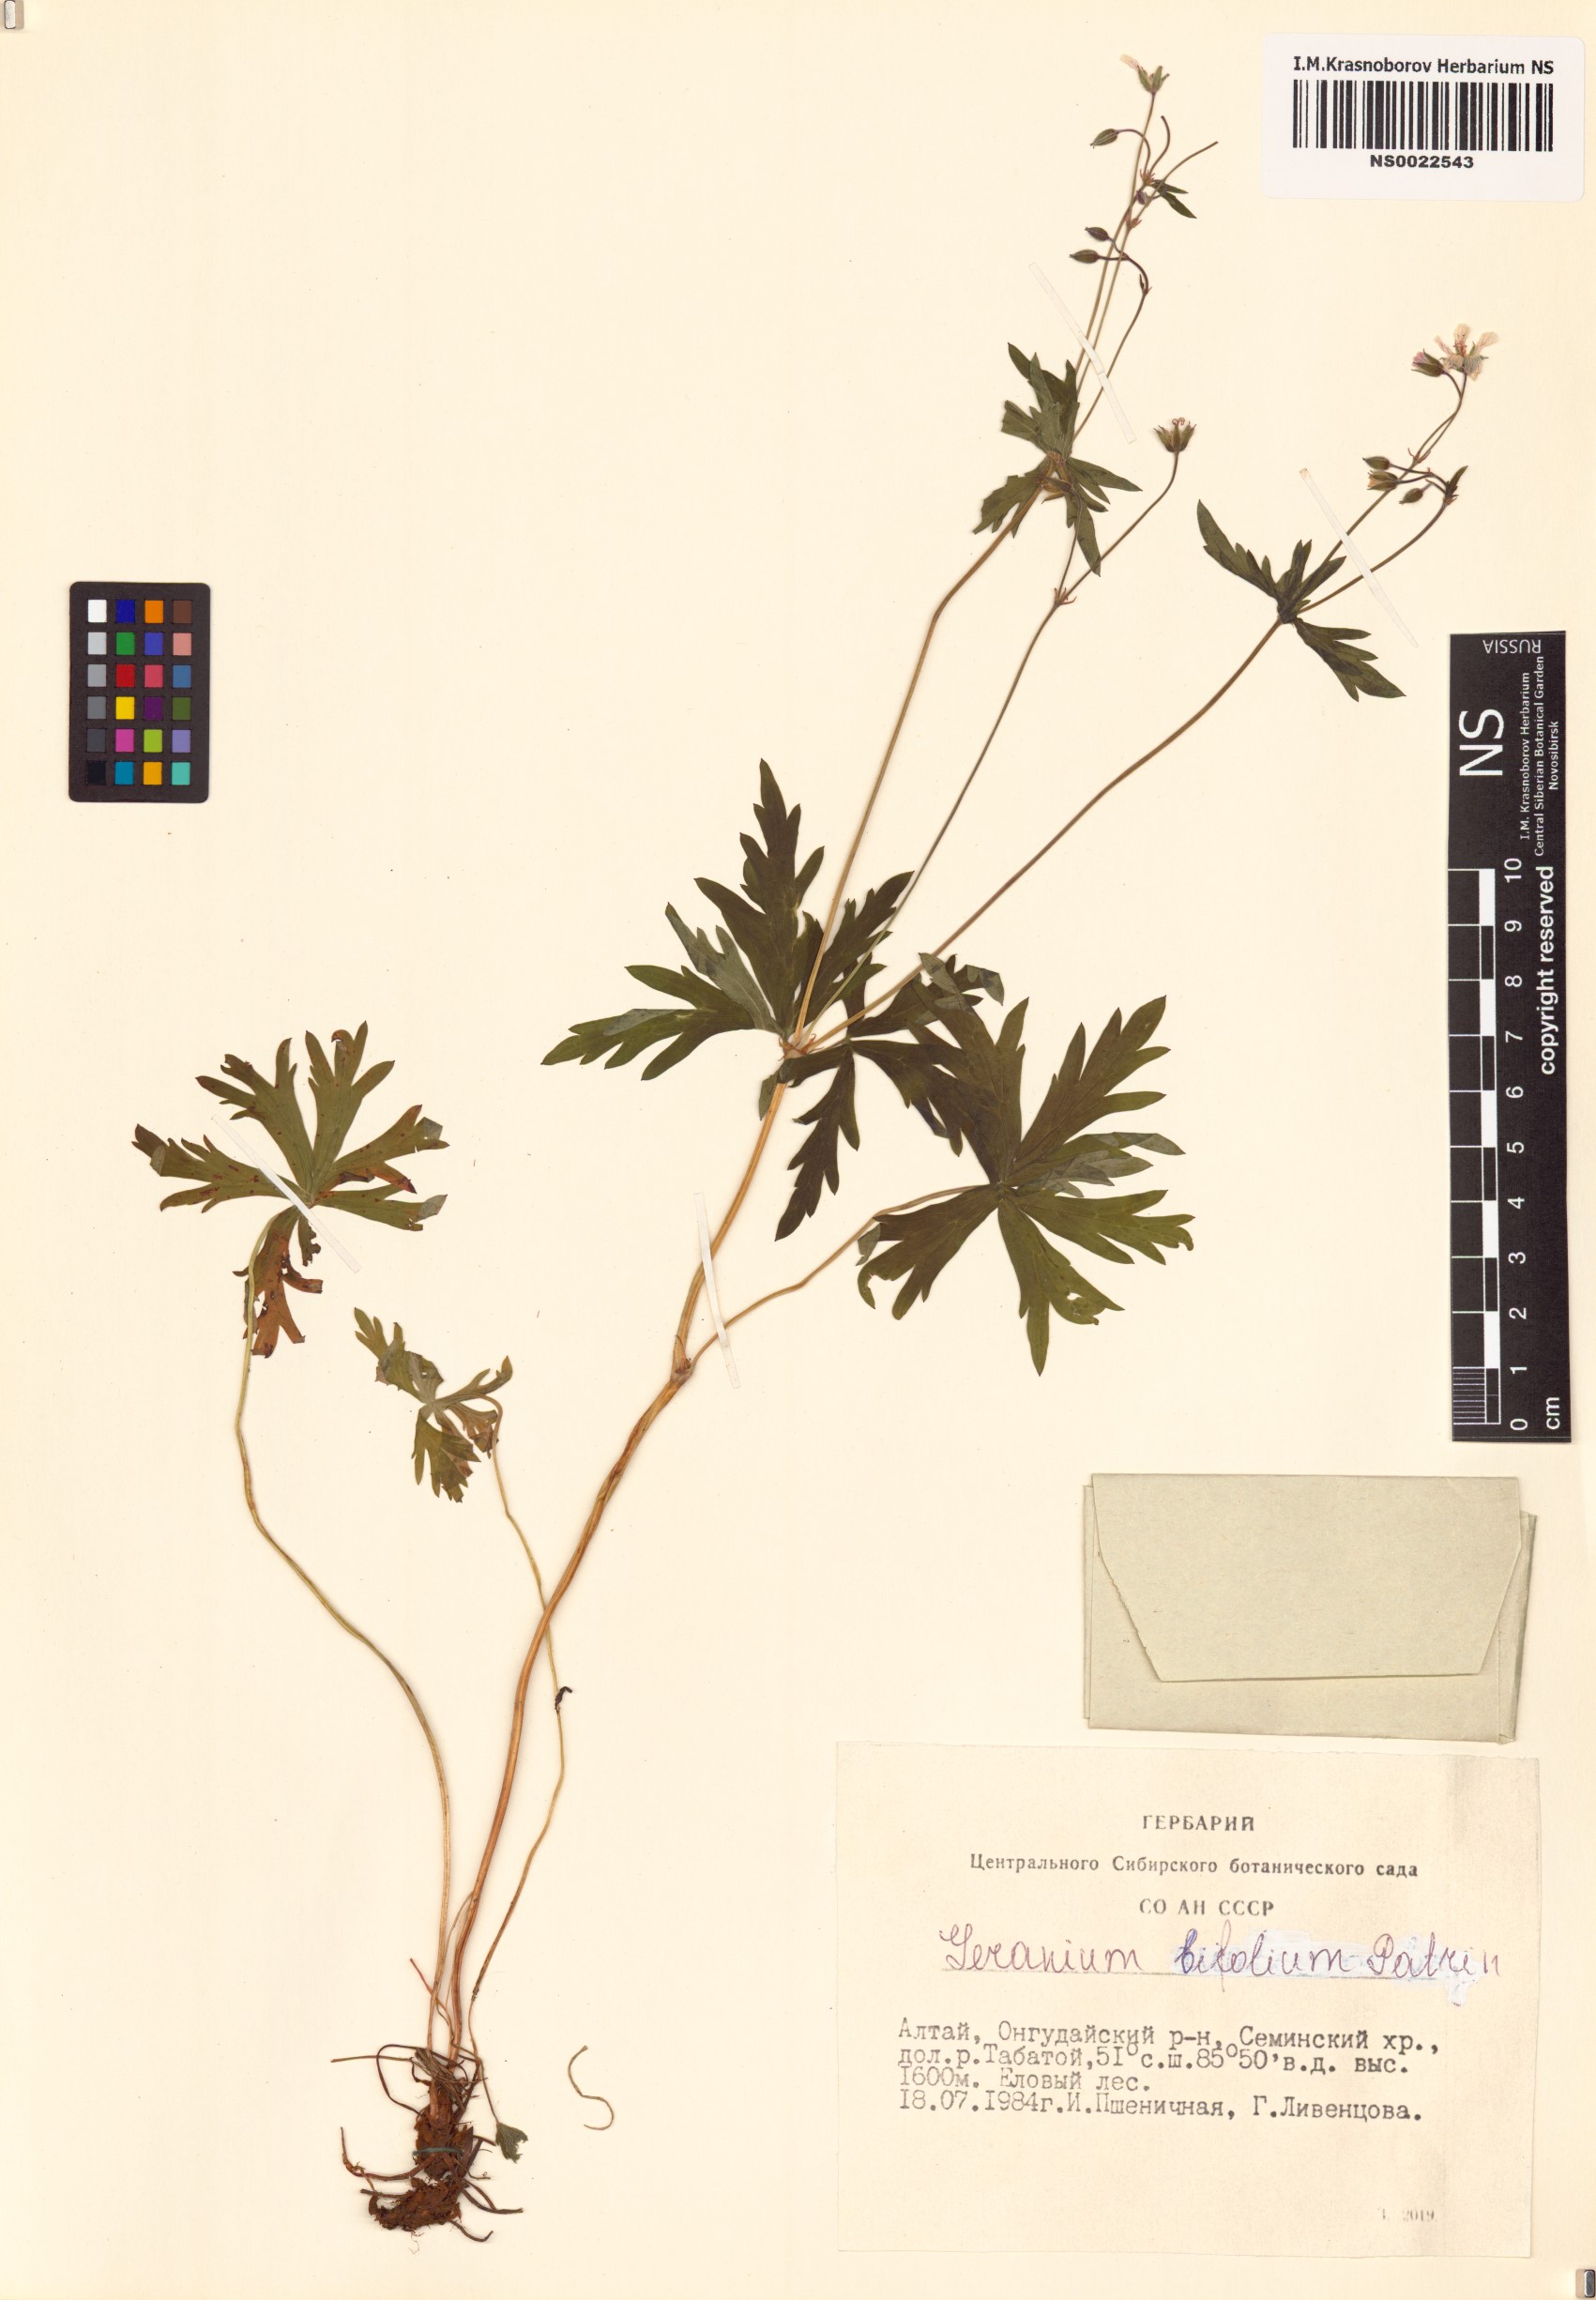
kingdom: Plantae
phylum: Tracheophyta
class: Magnoliopsida
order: Geraniales
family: Geraniaceae
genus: Geranium
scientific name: Geranium pseudosibiricum
